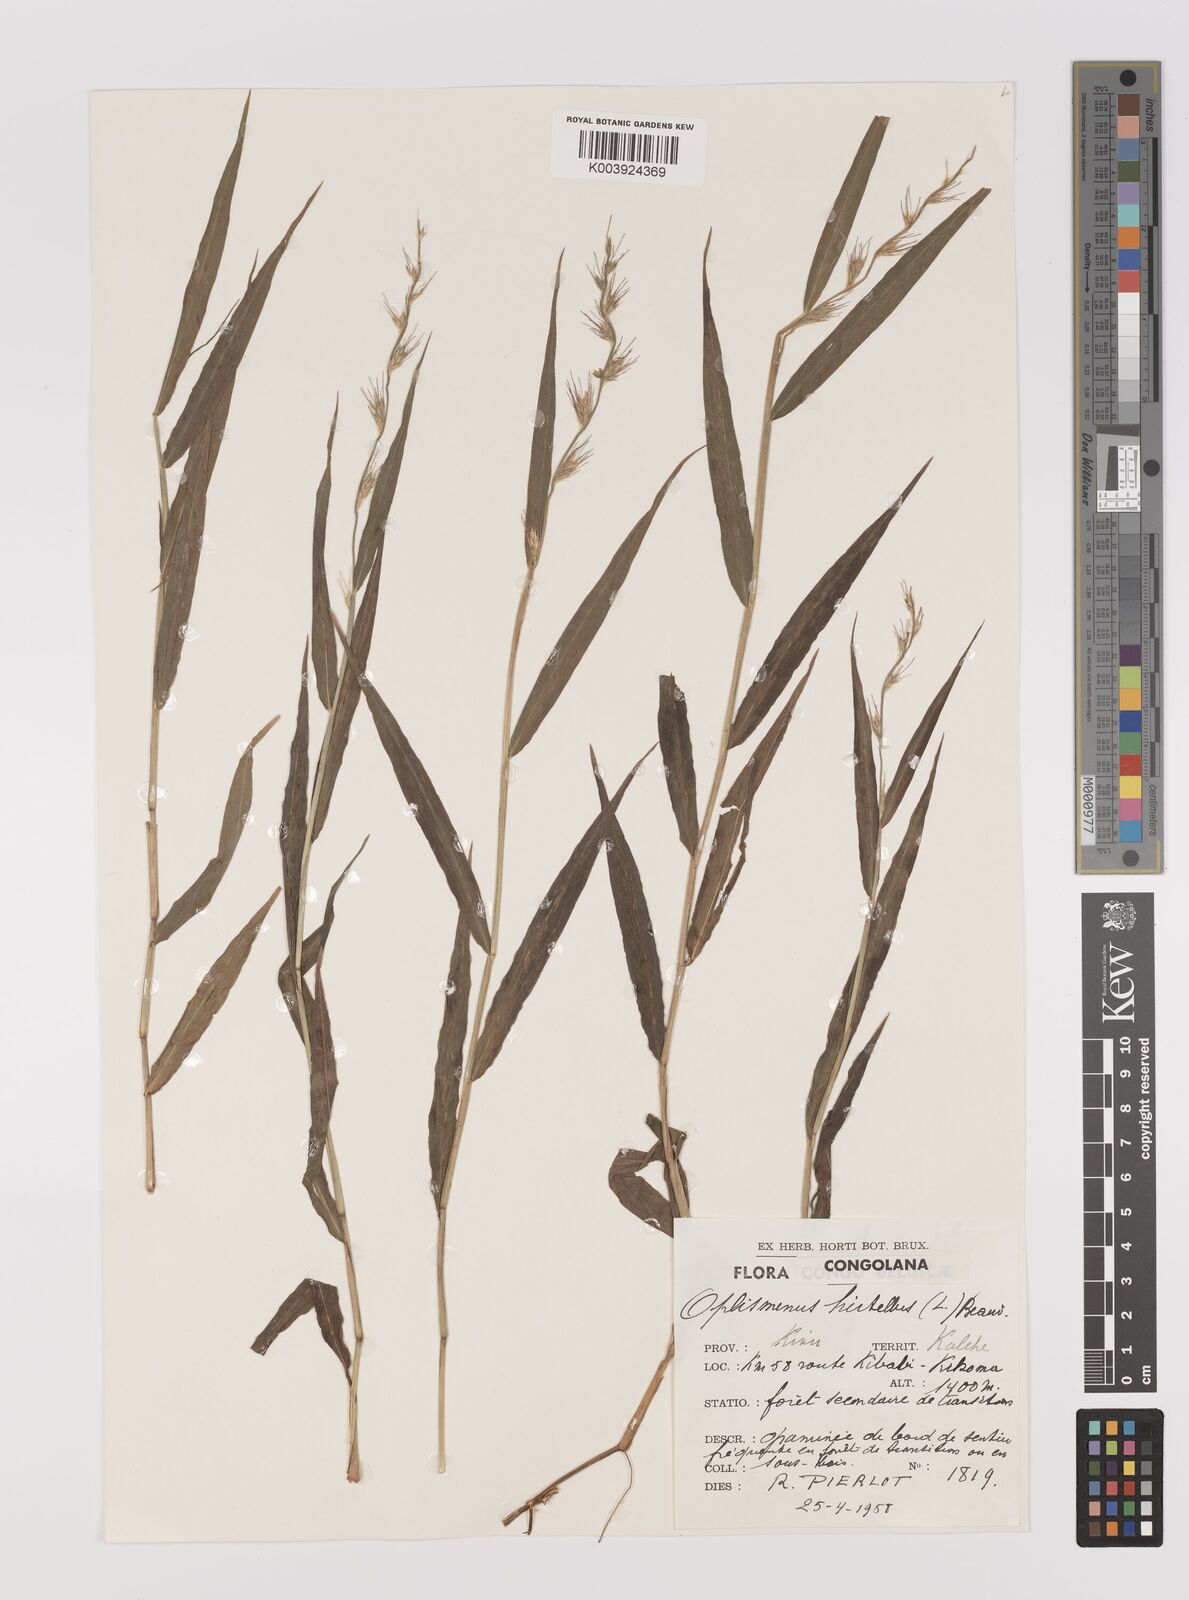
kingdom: Plantae
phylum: Tracheophyta
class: Liliopsida
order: Poales
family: Poaceae
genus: Oplismenus
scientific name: Oplismenus hirtellus
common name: Basketgrass
